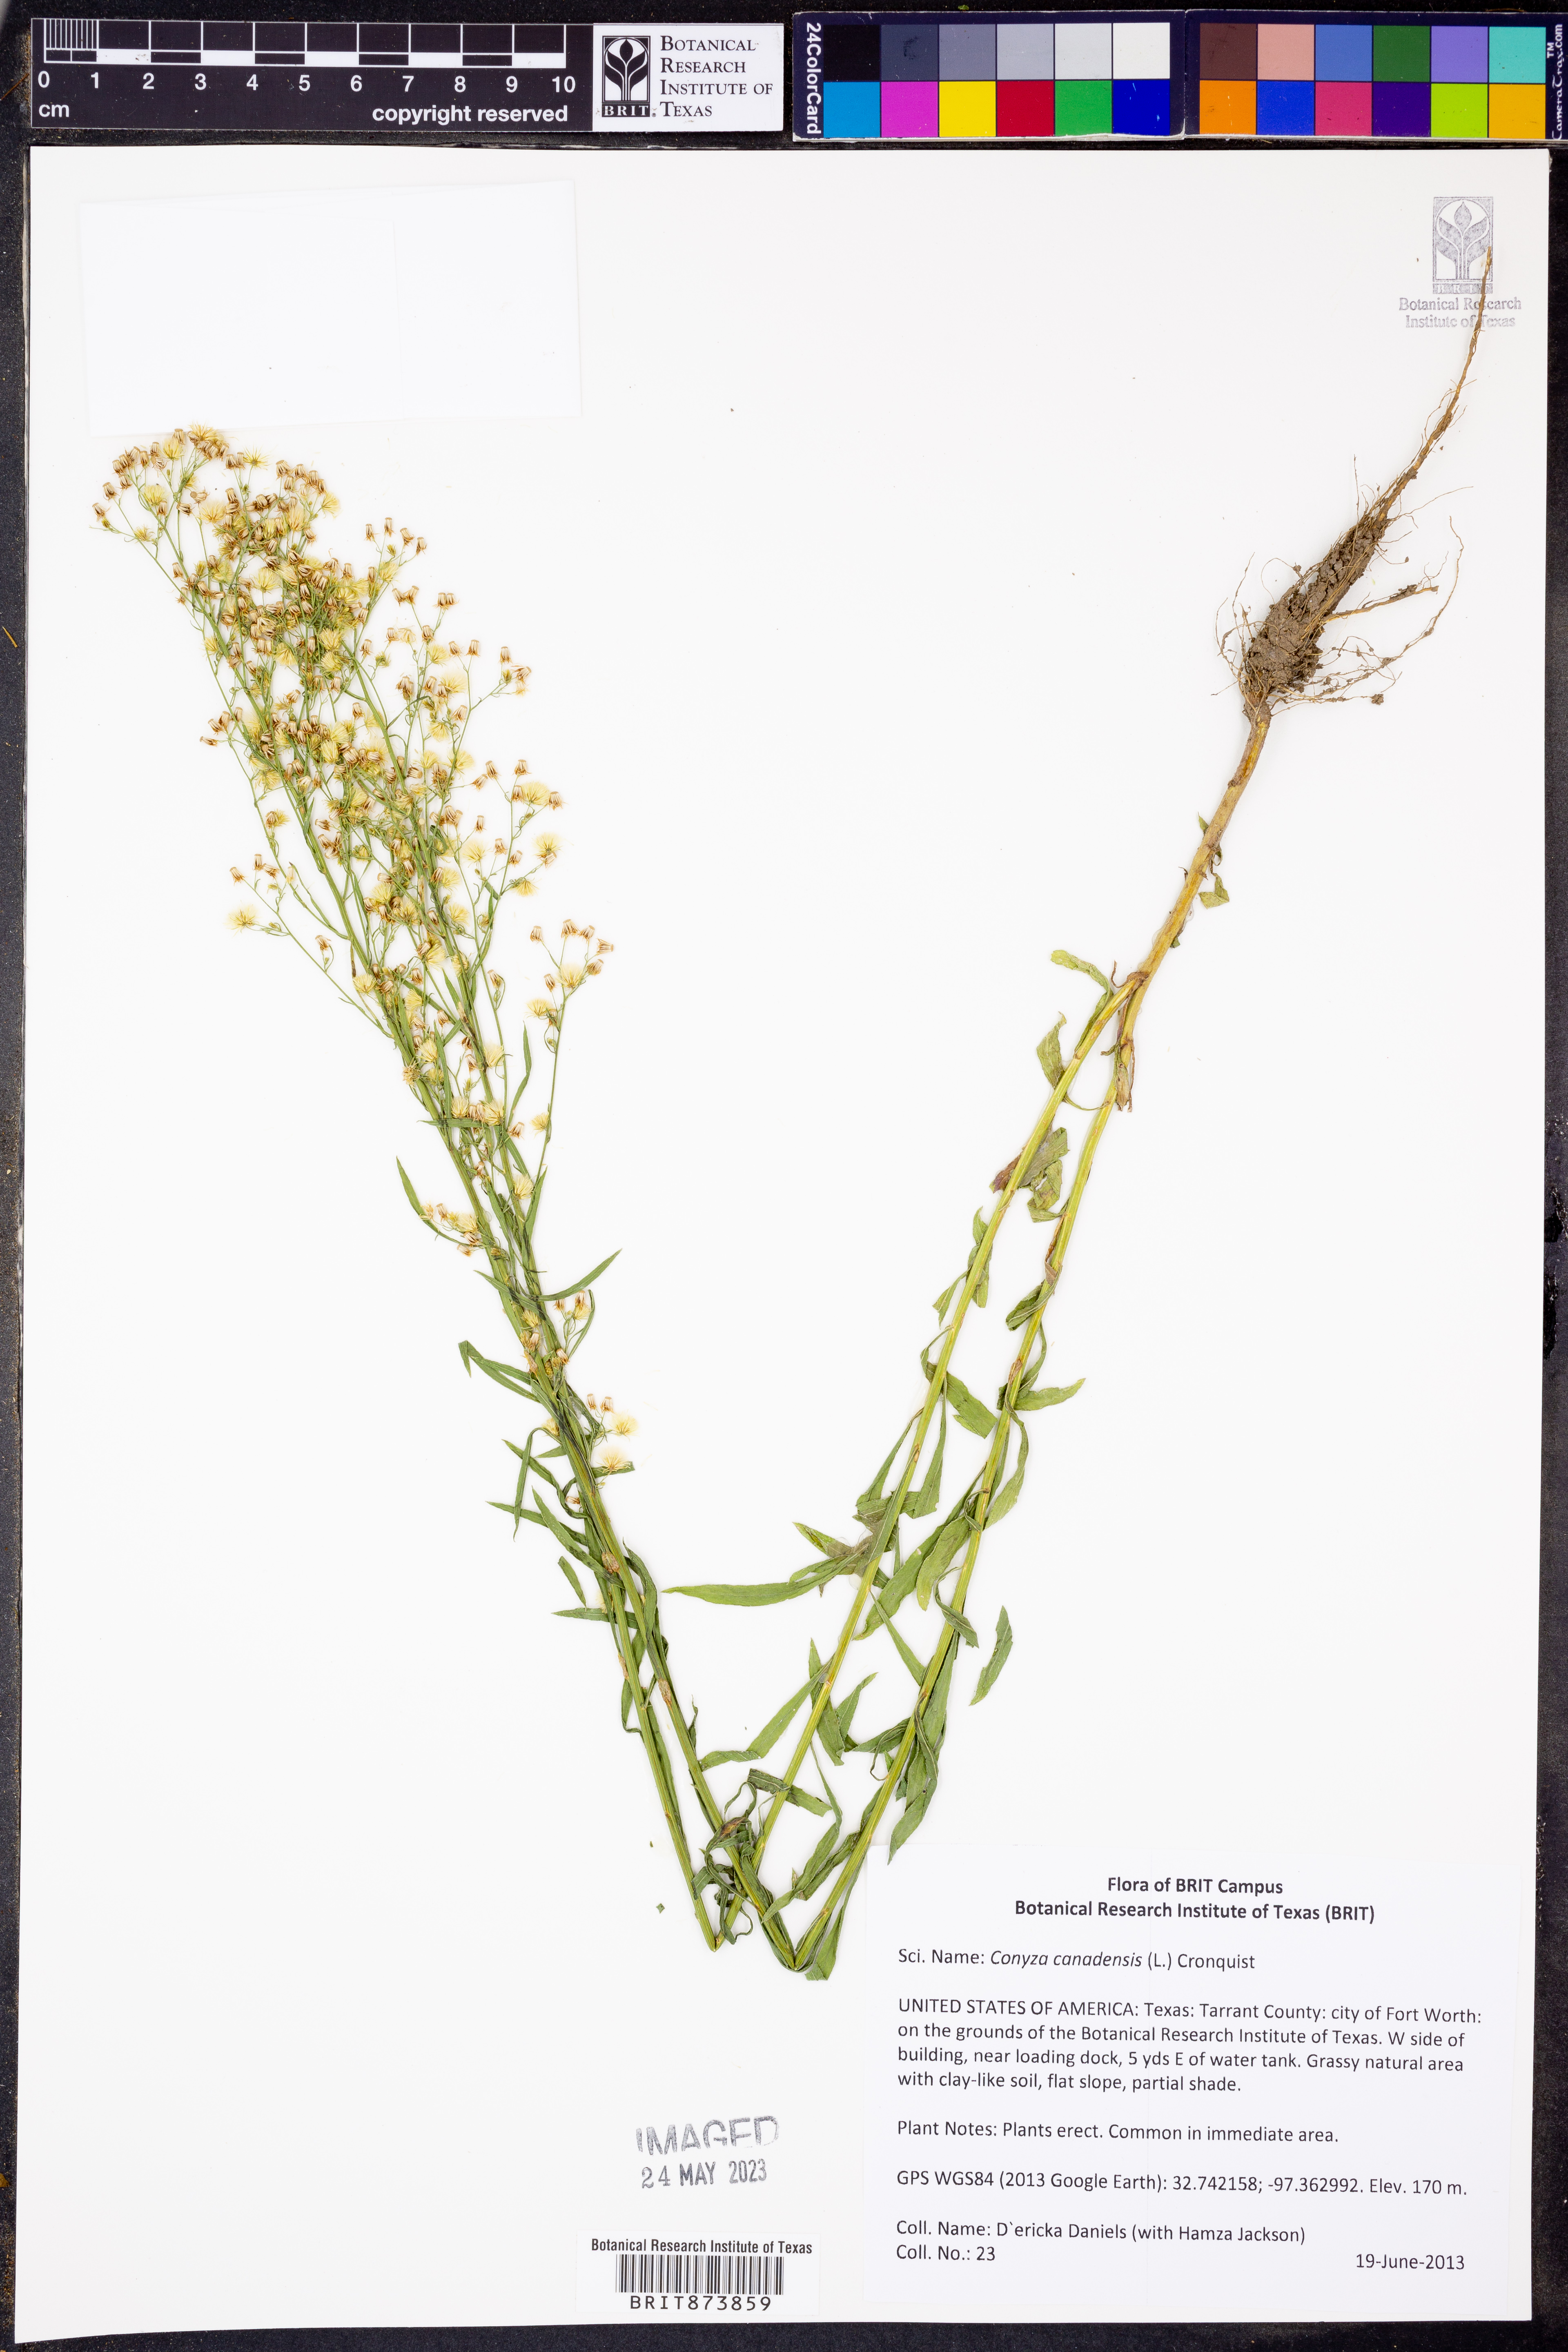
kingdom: Plantae
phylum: Tracheophyta
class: Magnoliopsida
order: Asterales
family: Asteraceae
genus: Erigeron
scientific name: Erigeron canadensis
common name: Canadian fleabane
